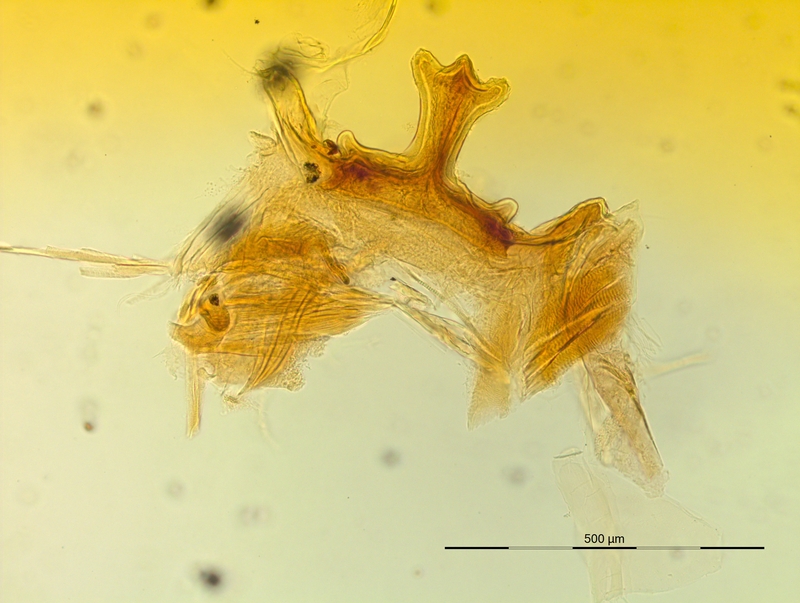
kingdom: Animalia
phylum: Arthropoda
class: Diplopoda
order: Chordeumatida
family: Craspedosomatidae
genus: Helvetiosoma
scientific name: Helvetiosoma alemannicum
